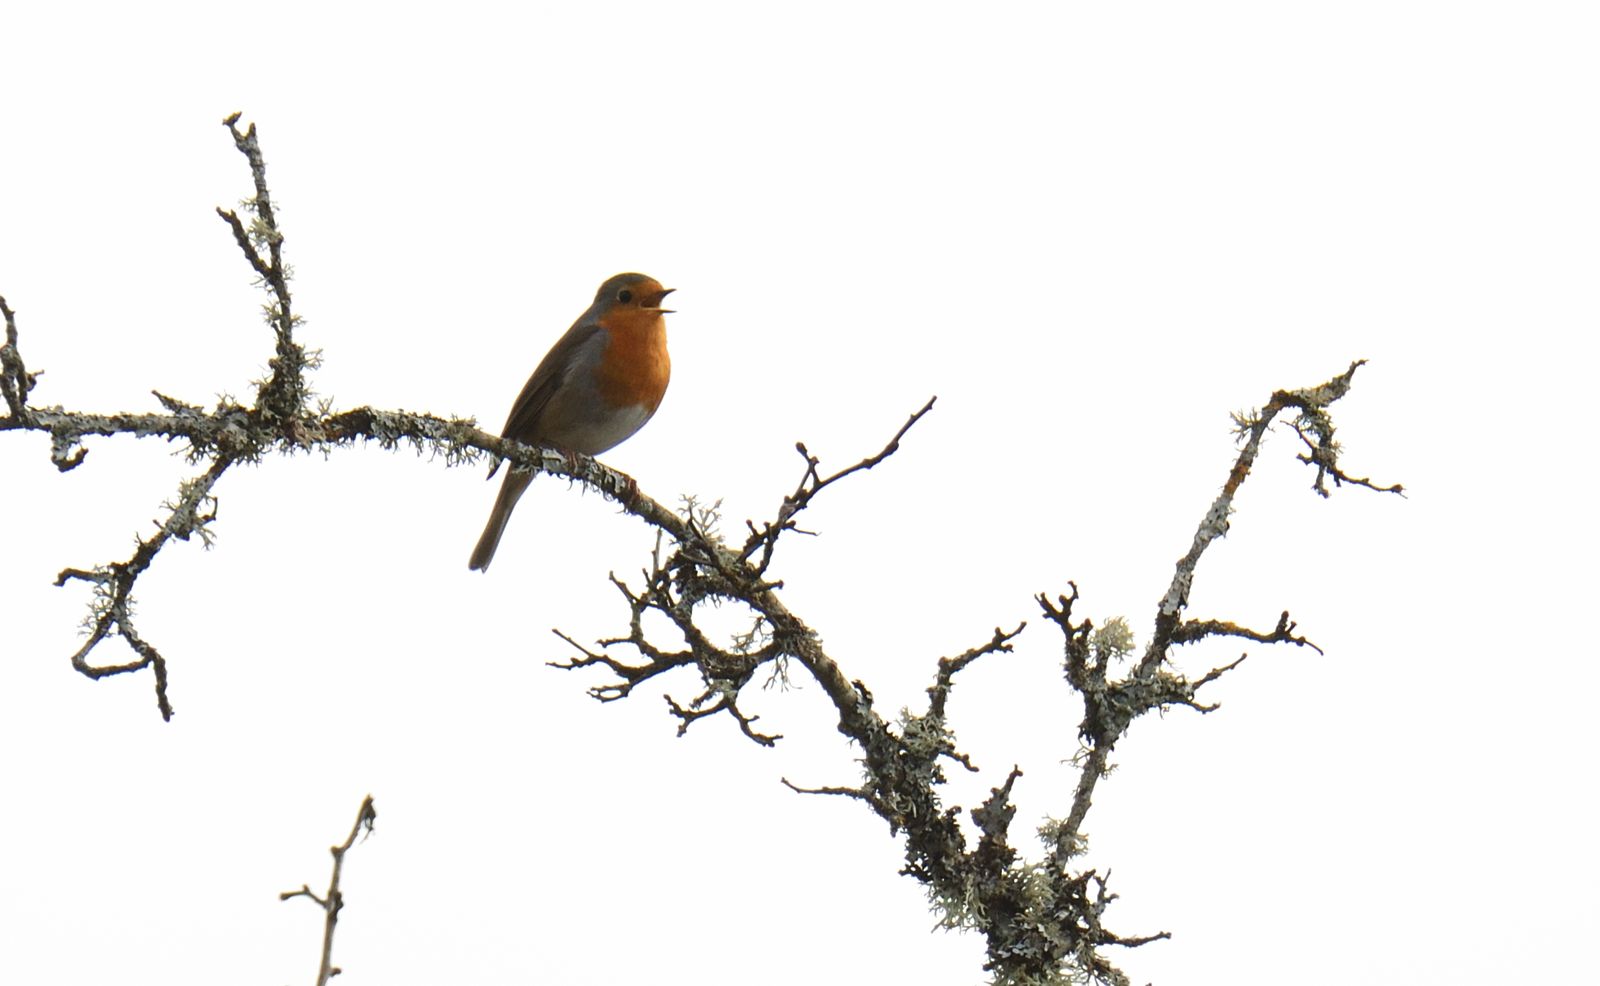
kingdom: Animalia
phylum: Chordata
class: Aves
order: Passeriformes
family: Muscicapidae
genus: Erithacus
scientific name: Erithacus rubecula
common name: European robin
